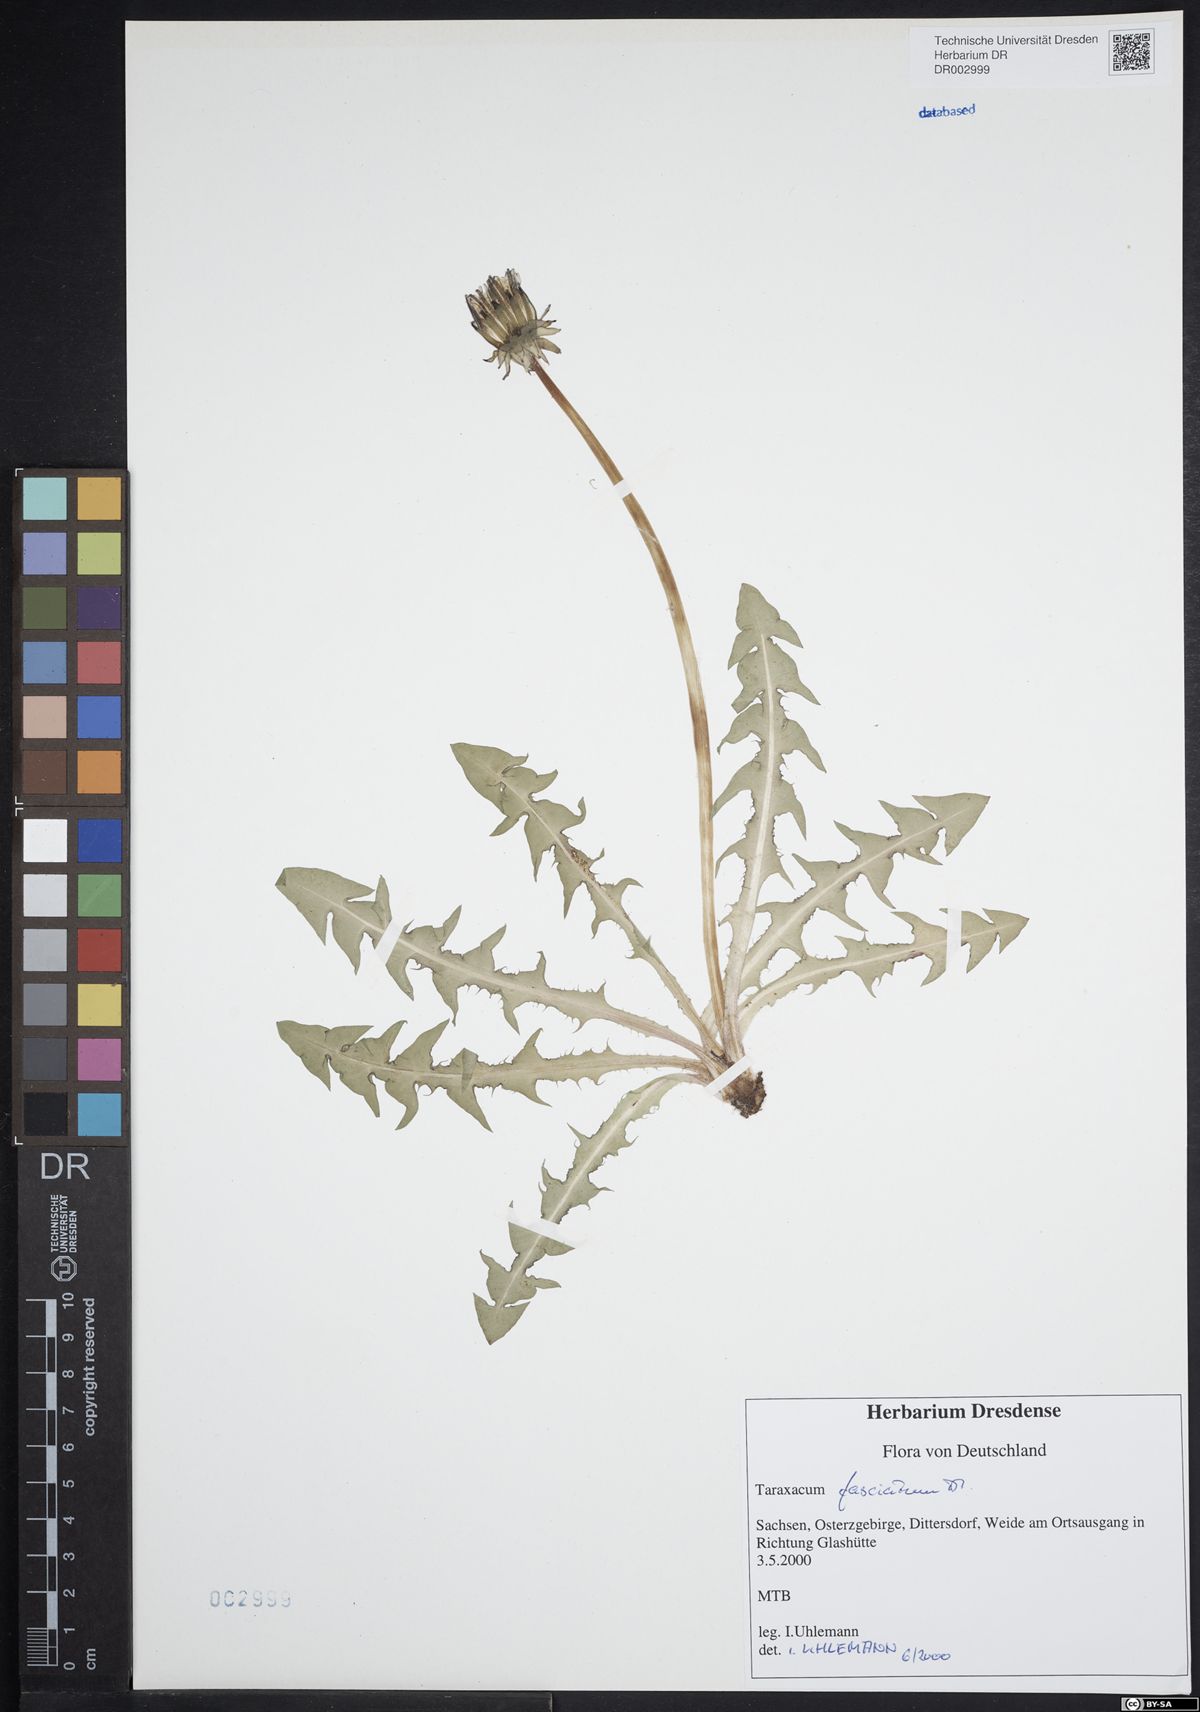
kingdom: Plantae
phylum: Tracheophyta
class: Magnoliopsida
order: Asterales
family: Asteraceae
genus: Taraxacum
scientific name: Taraxacum fasciatum
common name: Dense-bracted dandelion
